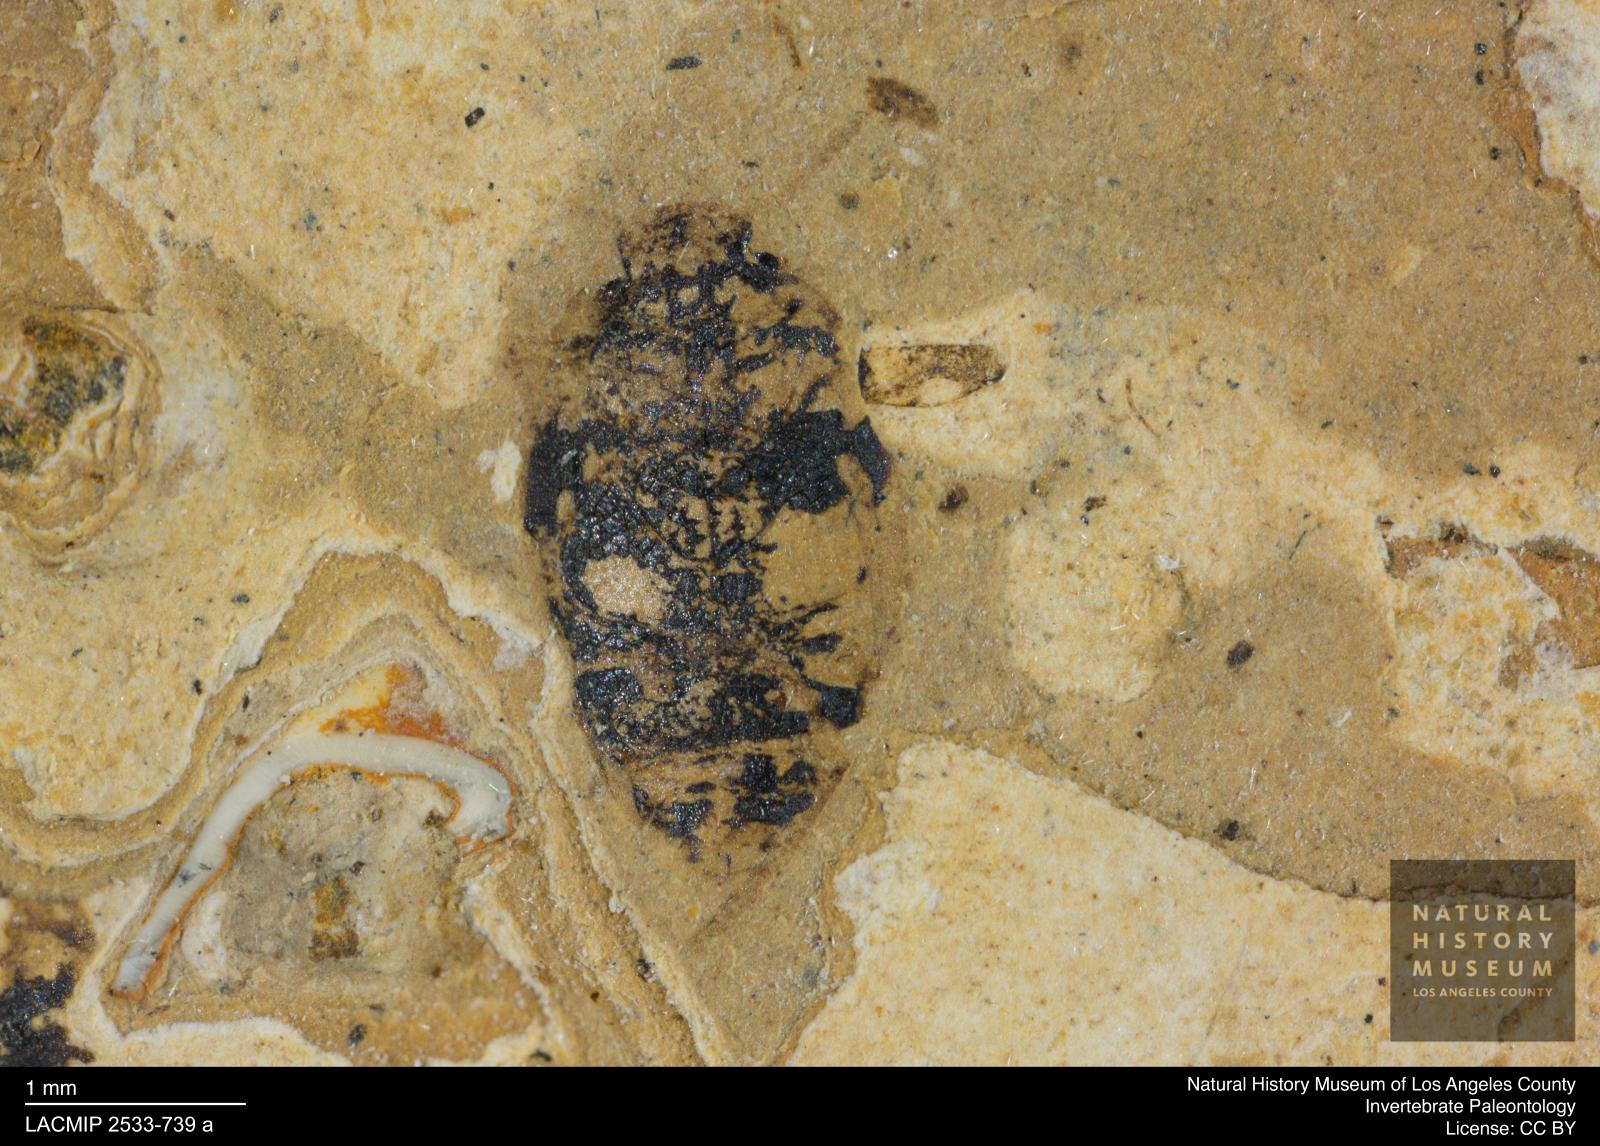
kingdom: Animalia
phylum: Arthropoda
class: Insecta
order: Coleoptera
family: Dytiscidae
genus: Oreodytes
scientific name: Oreodytes cryptolineatus
